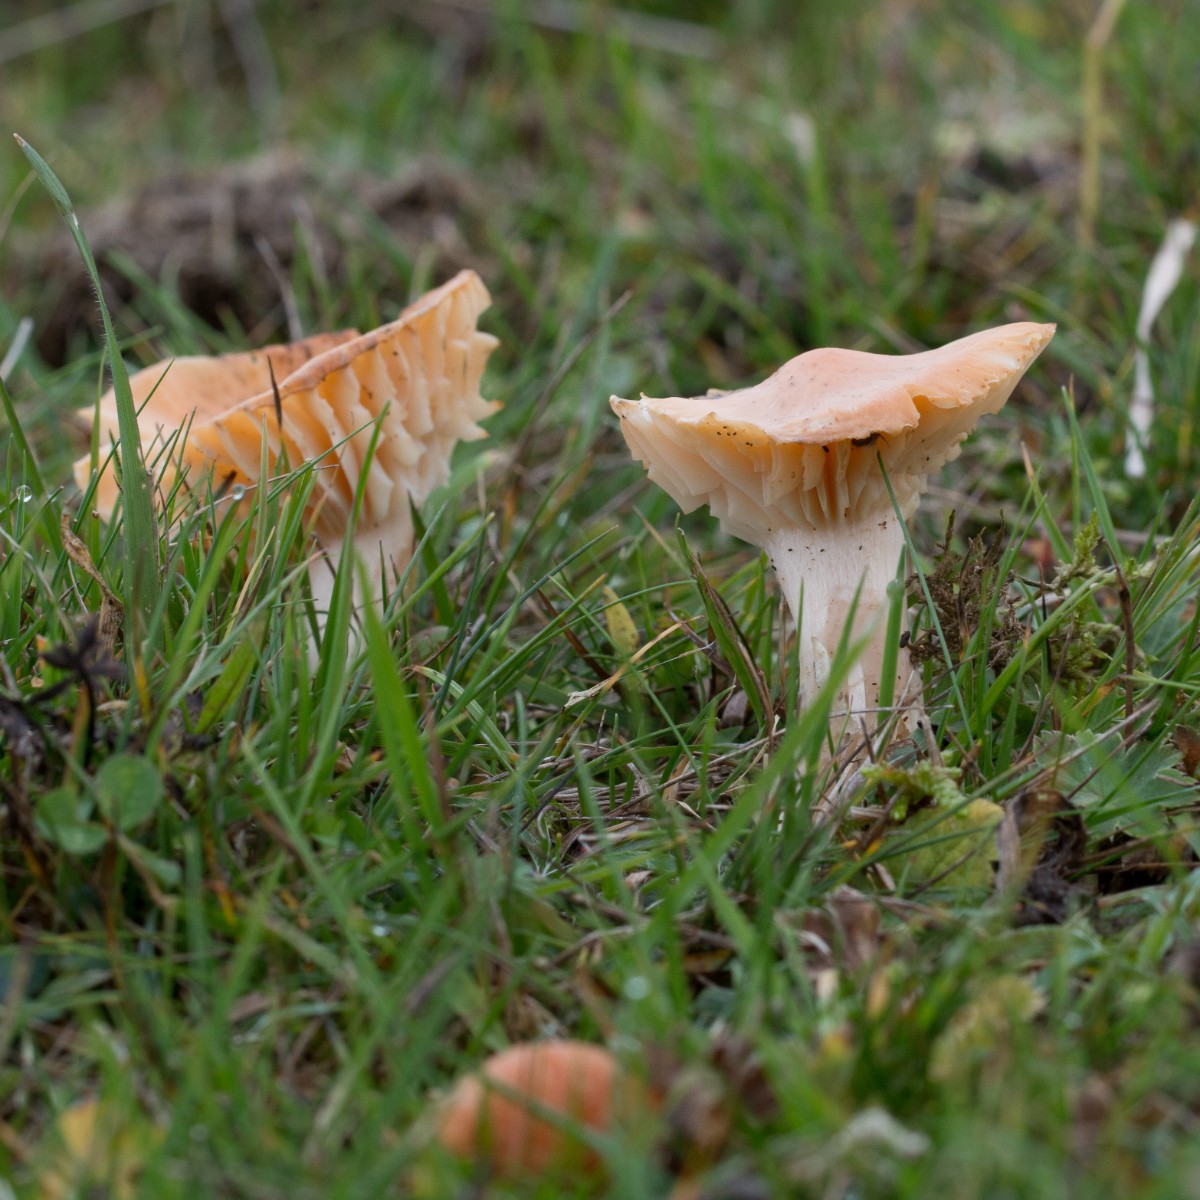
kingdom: Fungi
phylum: Basidiomycota
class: Agaricomycetes
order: Agaricales
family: Hygrophoraceae
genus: Cuphophyllus
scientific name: Cuphophyllus pratensis
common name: eng-vokshat
